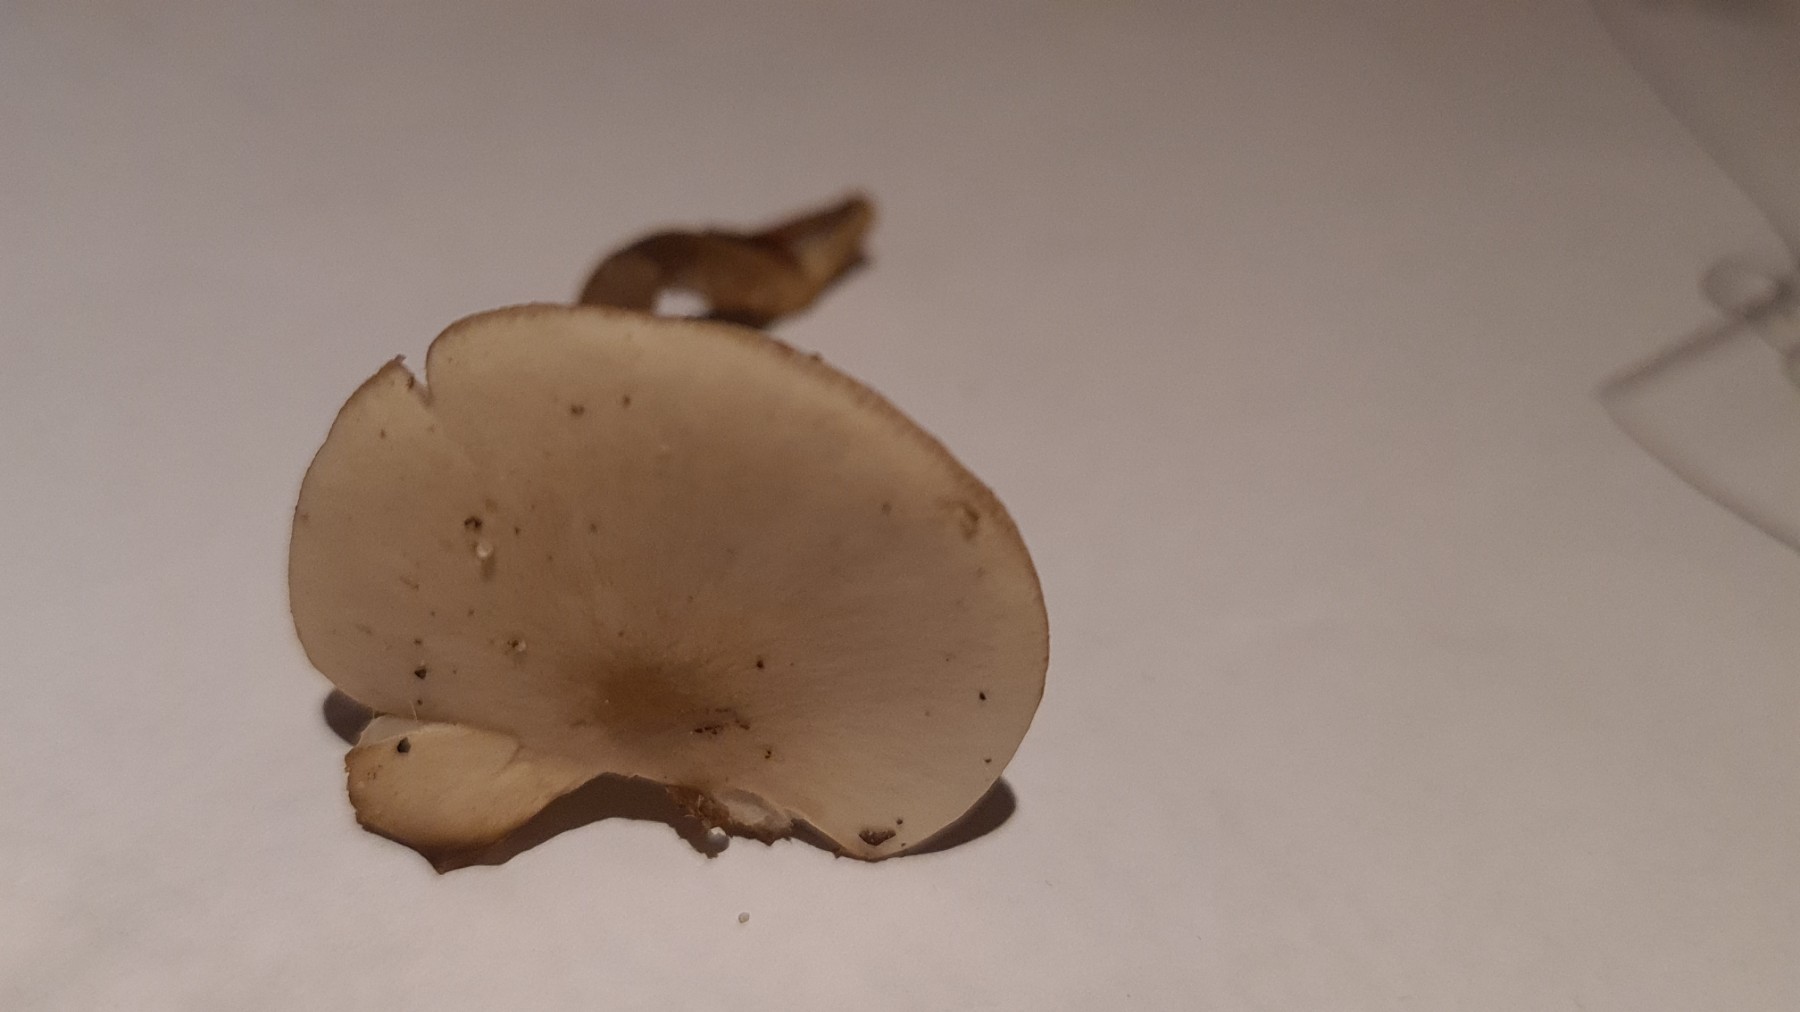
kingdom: Fungi
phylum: Basidiomycota
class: Agaricomycetes
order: Agaricales
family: Tricholomataceae
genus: Clitocybe
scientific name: Clitocybe metachroa
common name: grå tragthat
